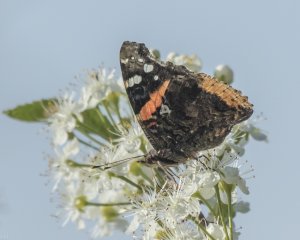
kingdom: Animalia
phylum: Arthropoda
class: Insecta
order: Lepidoptera
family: Nymphalidae
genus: Vanessa
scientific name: Vanessa atalanta
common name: Red Admiral
